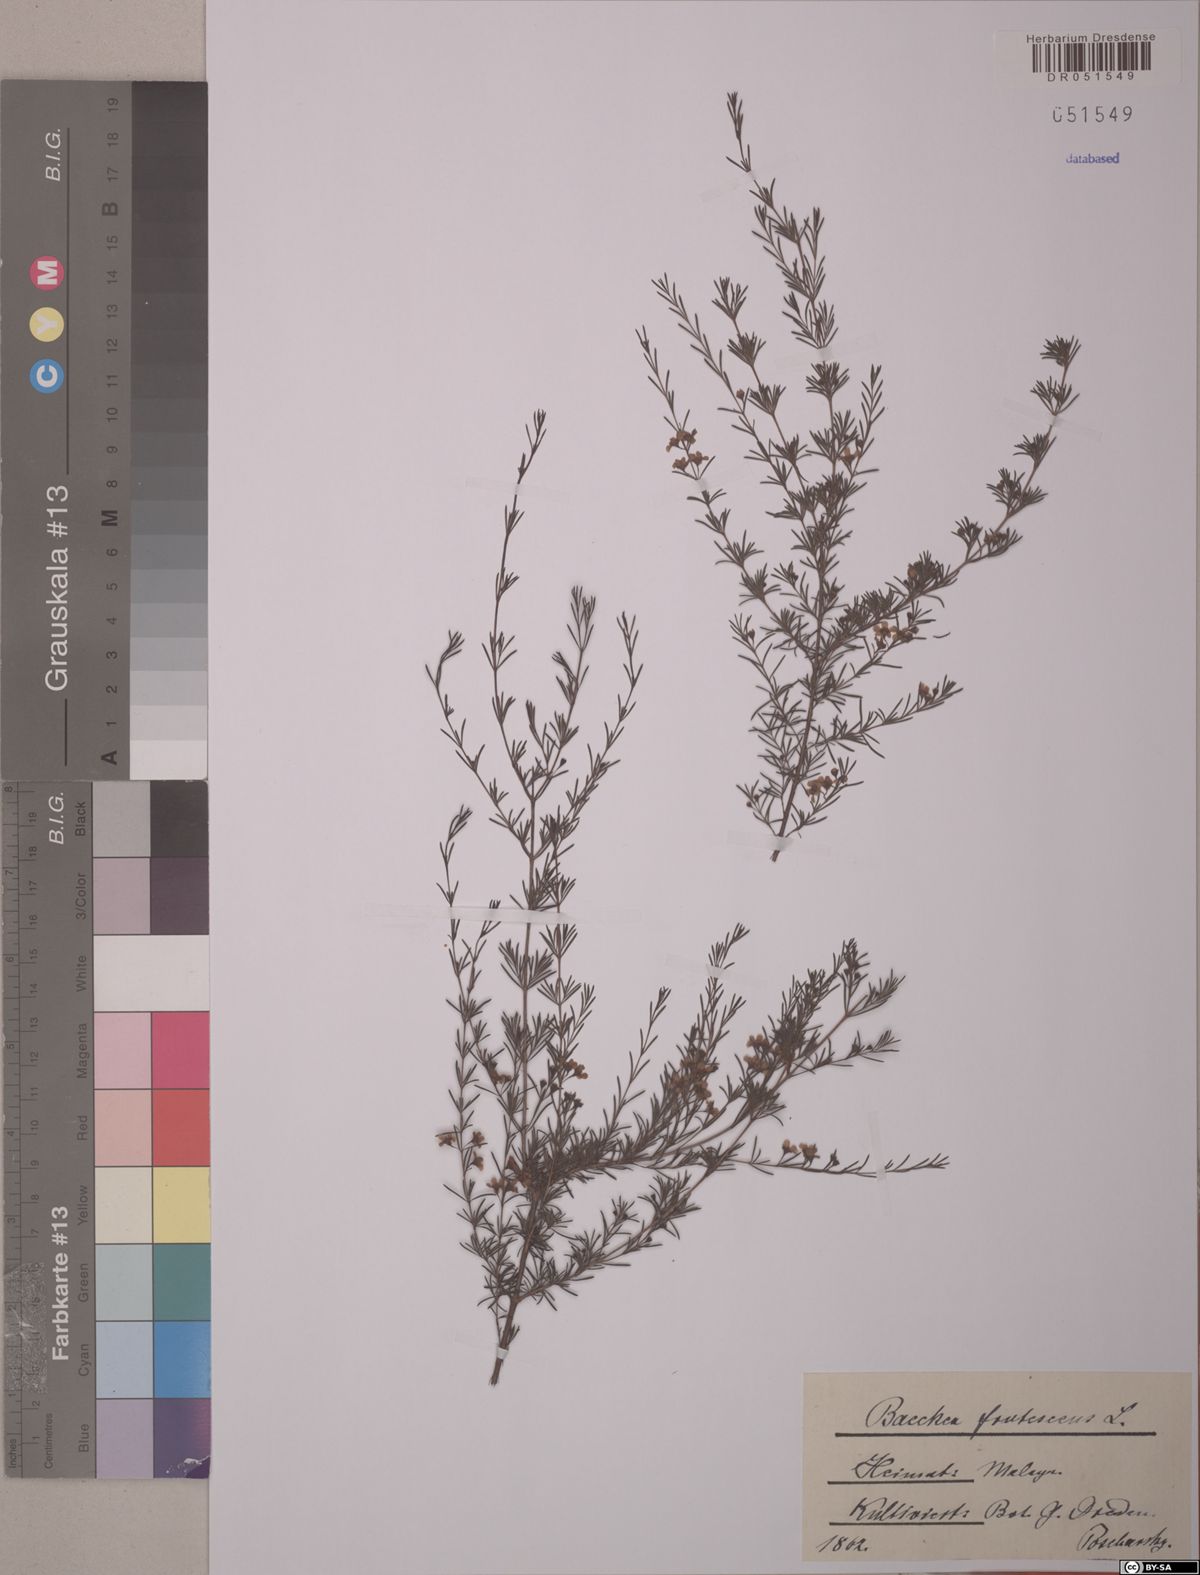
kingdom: Plantae
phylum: Tracheophyta
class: Magnoliopsida
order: Myrtales
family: Myrtaceae
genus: Baeckea
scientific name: Baeckea frutescens
